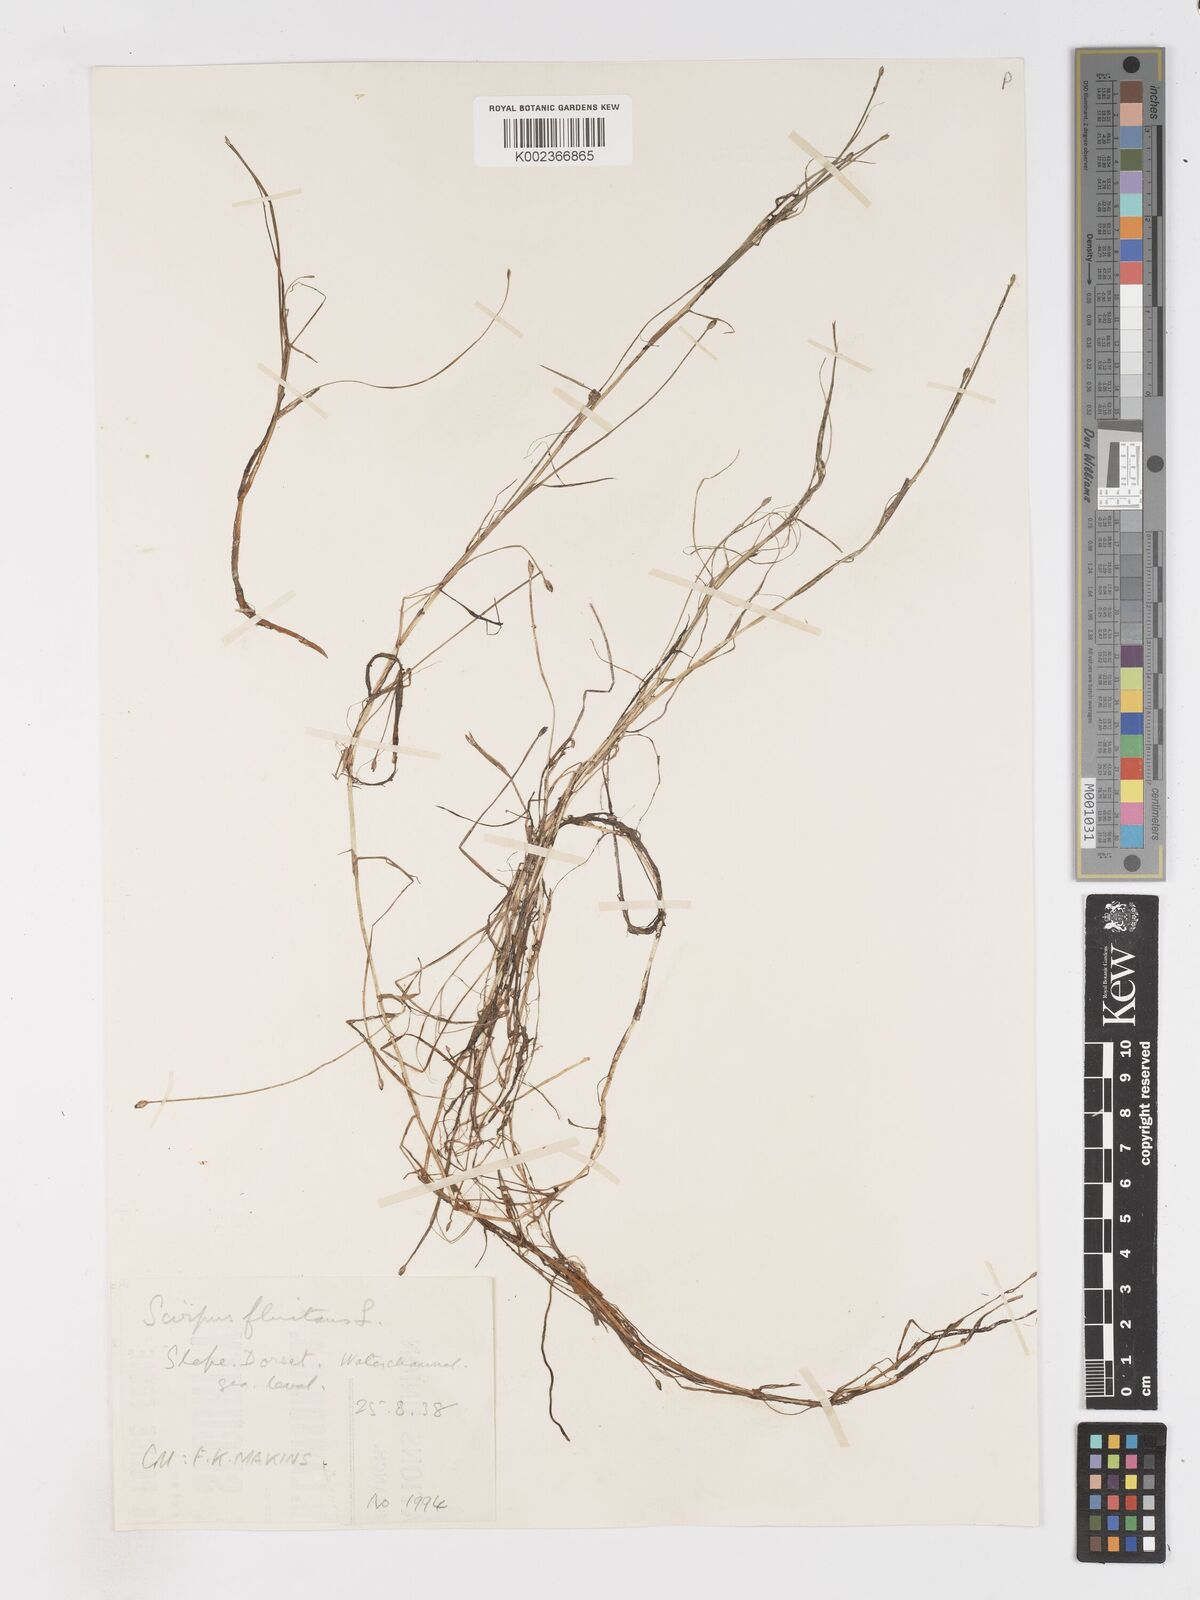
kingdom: Plantae
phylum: Tracheophyta
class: Liliopsida
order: Poales
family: Cyperaceae
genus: Isolepis
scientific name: Isolepis fluitans
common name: Floating club-rush
